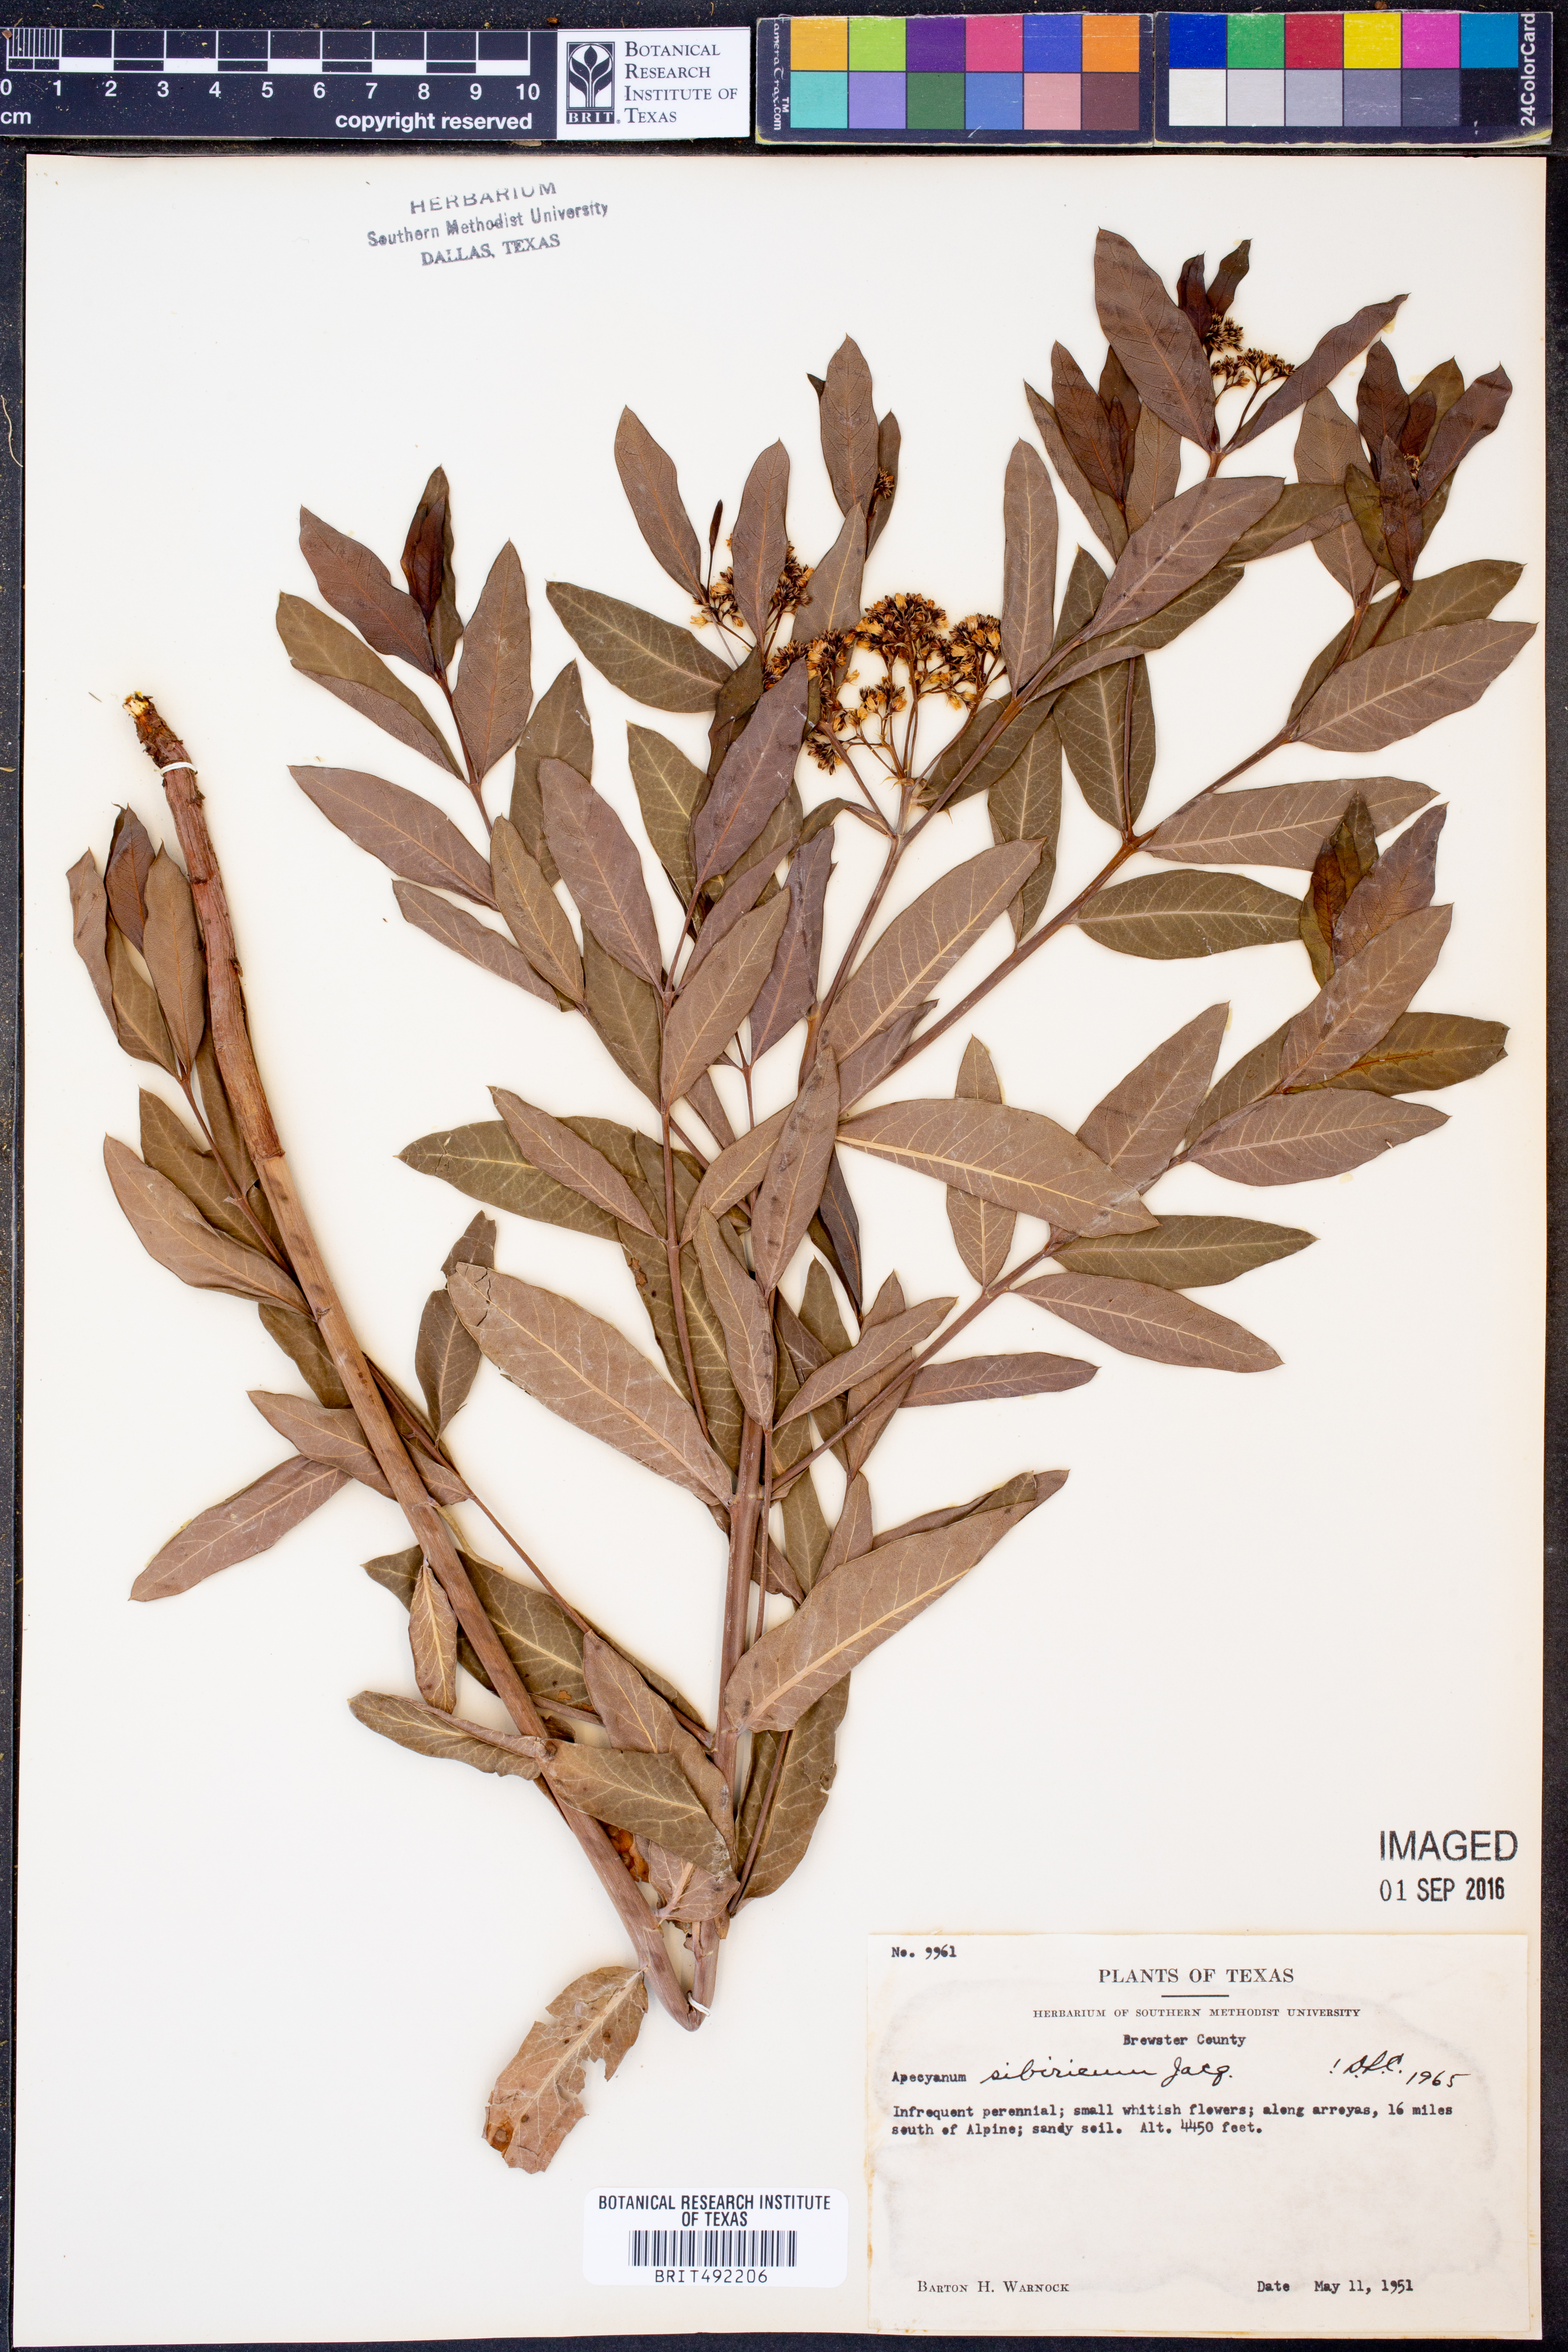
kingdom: Plantae
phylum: Tracheophyta
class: Magnoliopsida
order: Gentianales
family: Apocynaceae
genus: Apocynum
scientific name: Apocynum cannabinum
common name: Hemp dogbane
